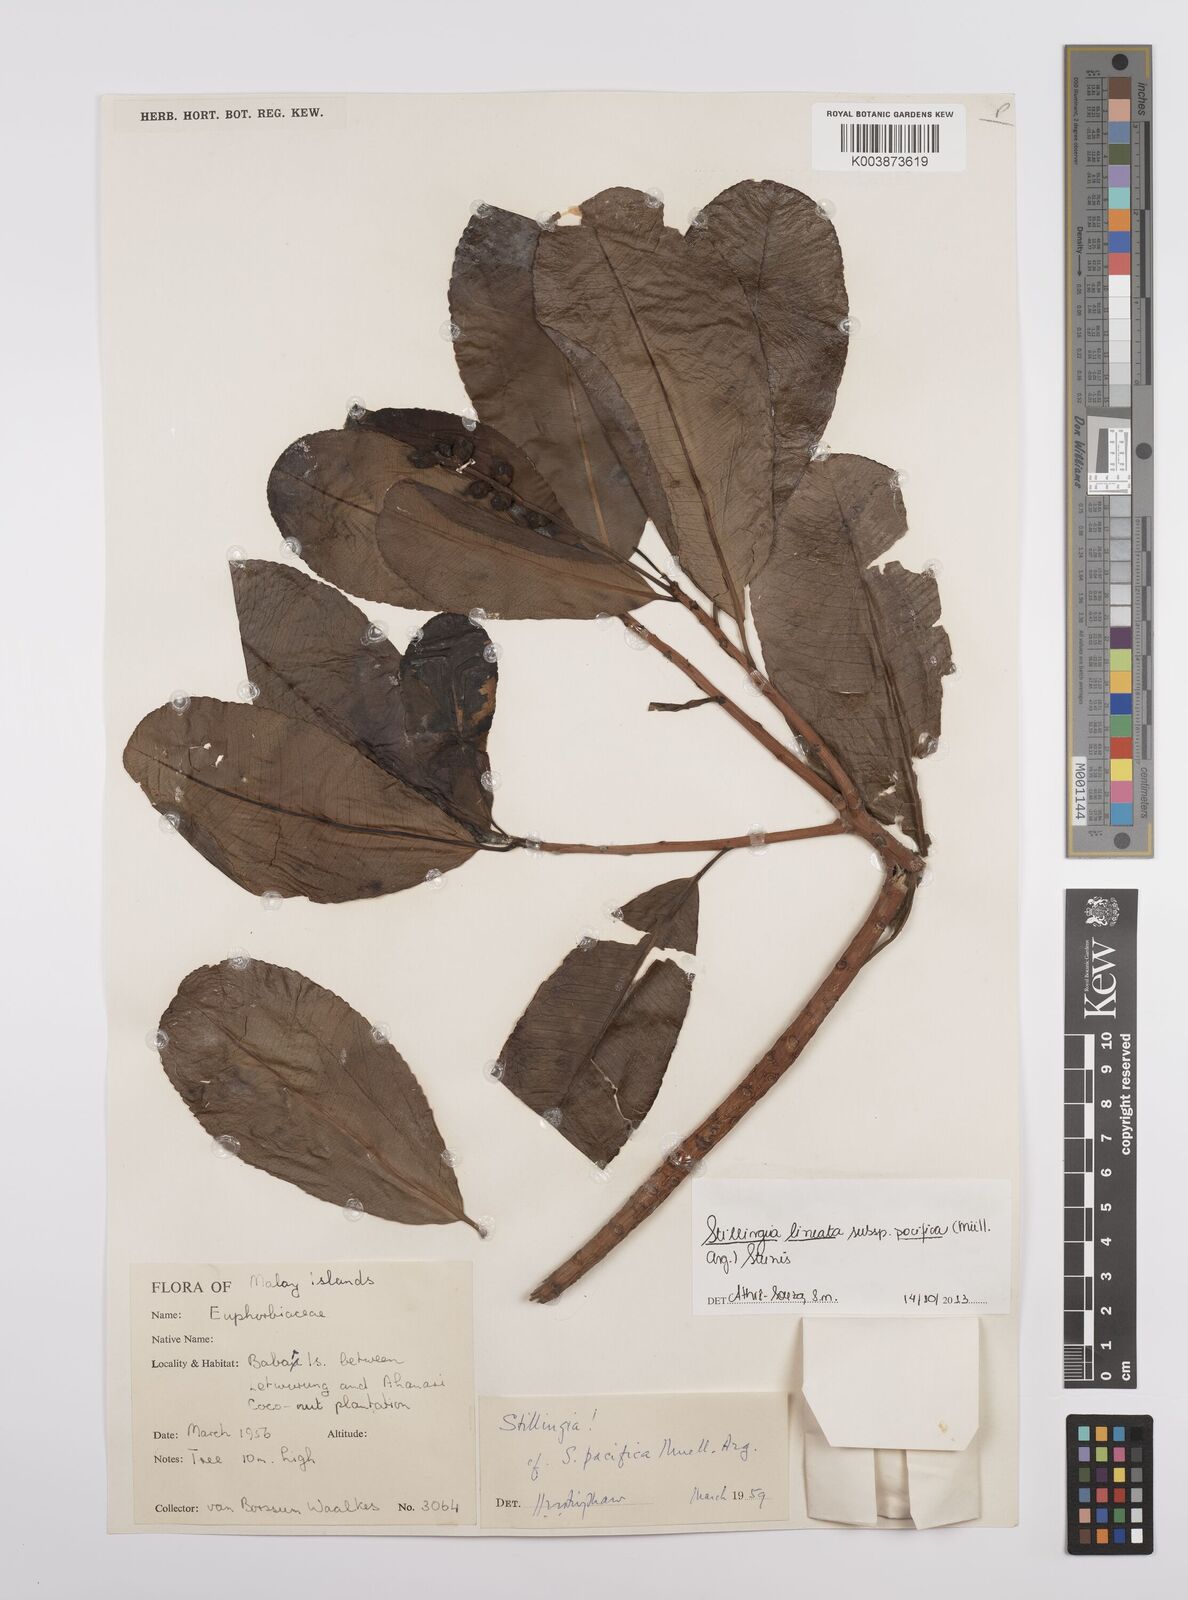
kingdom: Plantae
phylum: Tracheophyta
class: Magnoliopsida
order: Malpighiales
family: Euphorbiaceae
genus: Stillingia
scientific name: Stillingia lineata
